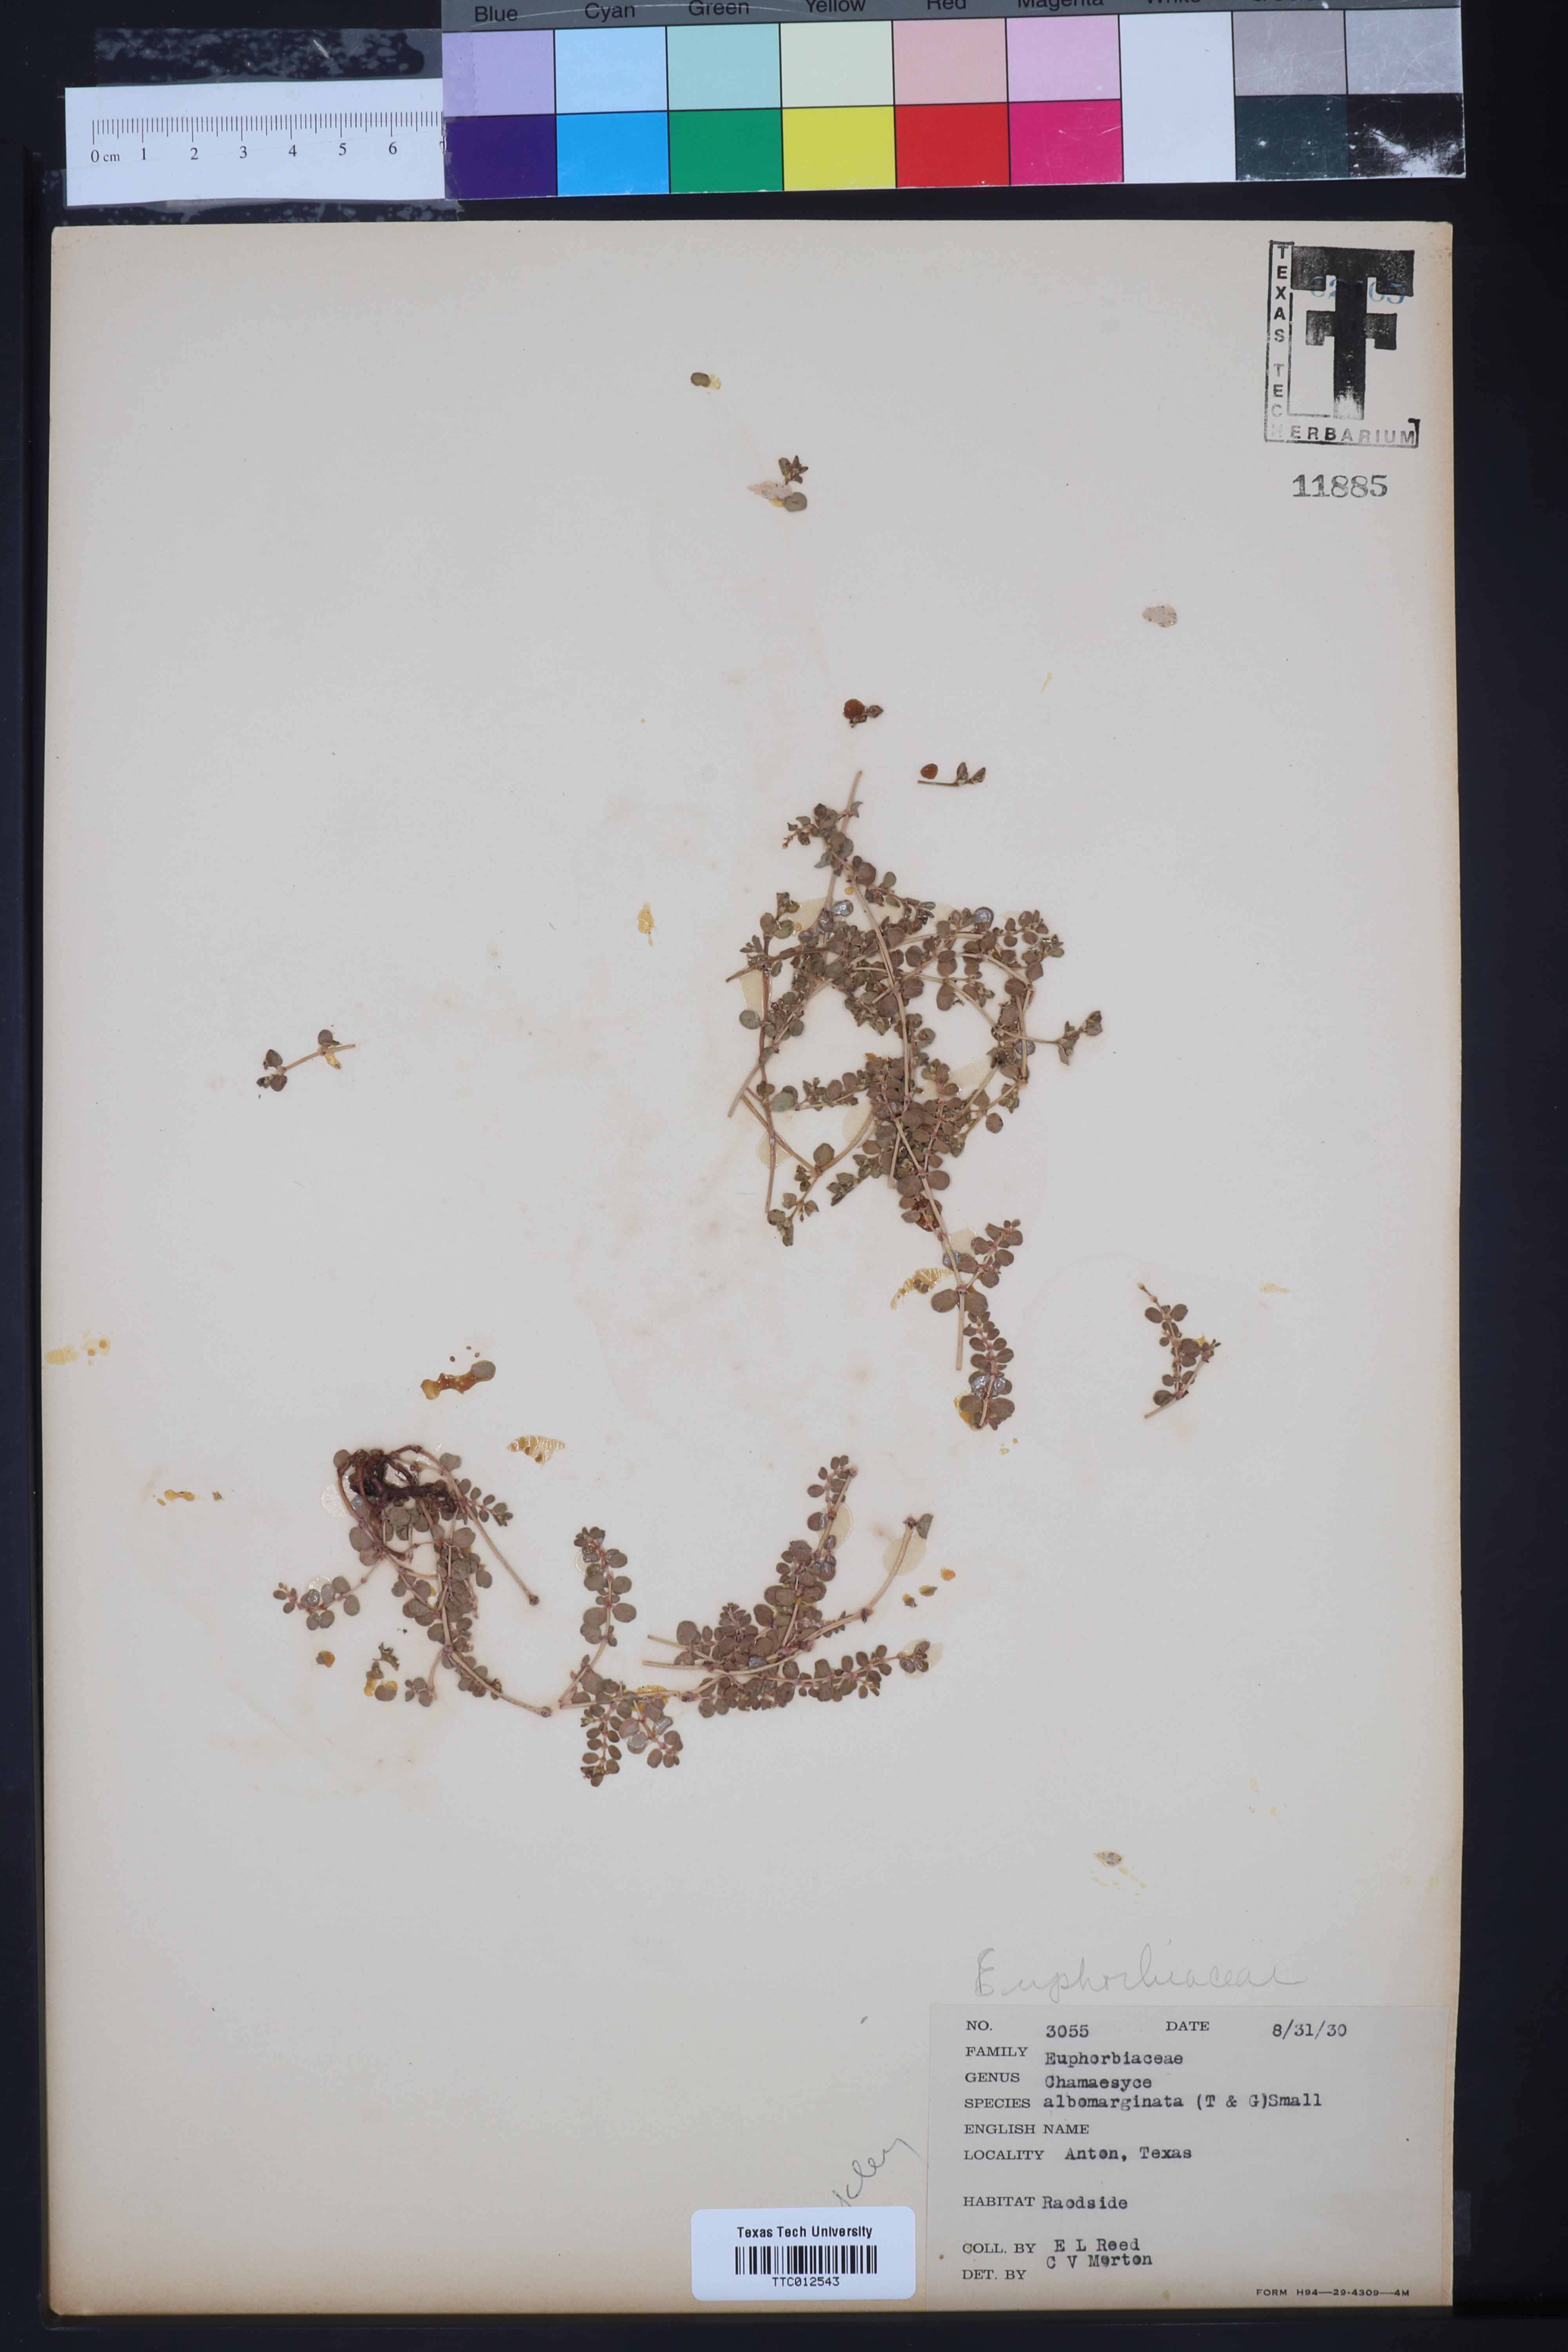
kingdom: Plantae
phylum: Tracheophyta
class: Magnoliopsida
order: Malpighiales
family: Euphorbiaceae
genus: Euphorbia
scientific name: Euphorbia albomarginata
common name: Whitemargin sandmat
